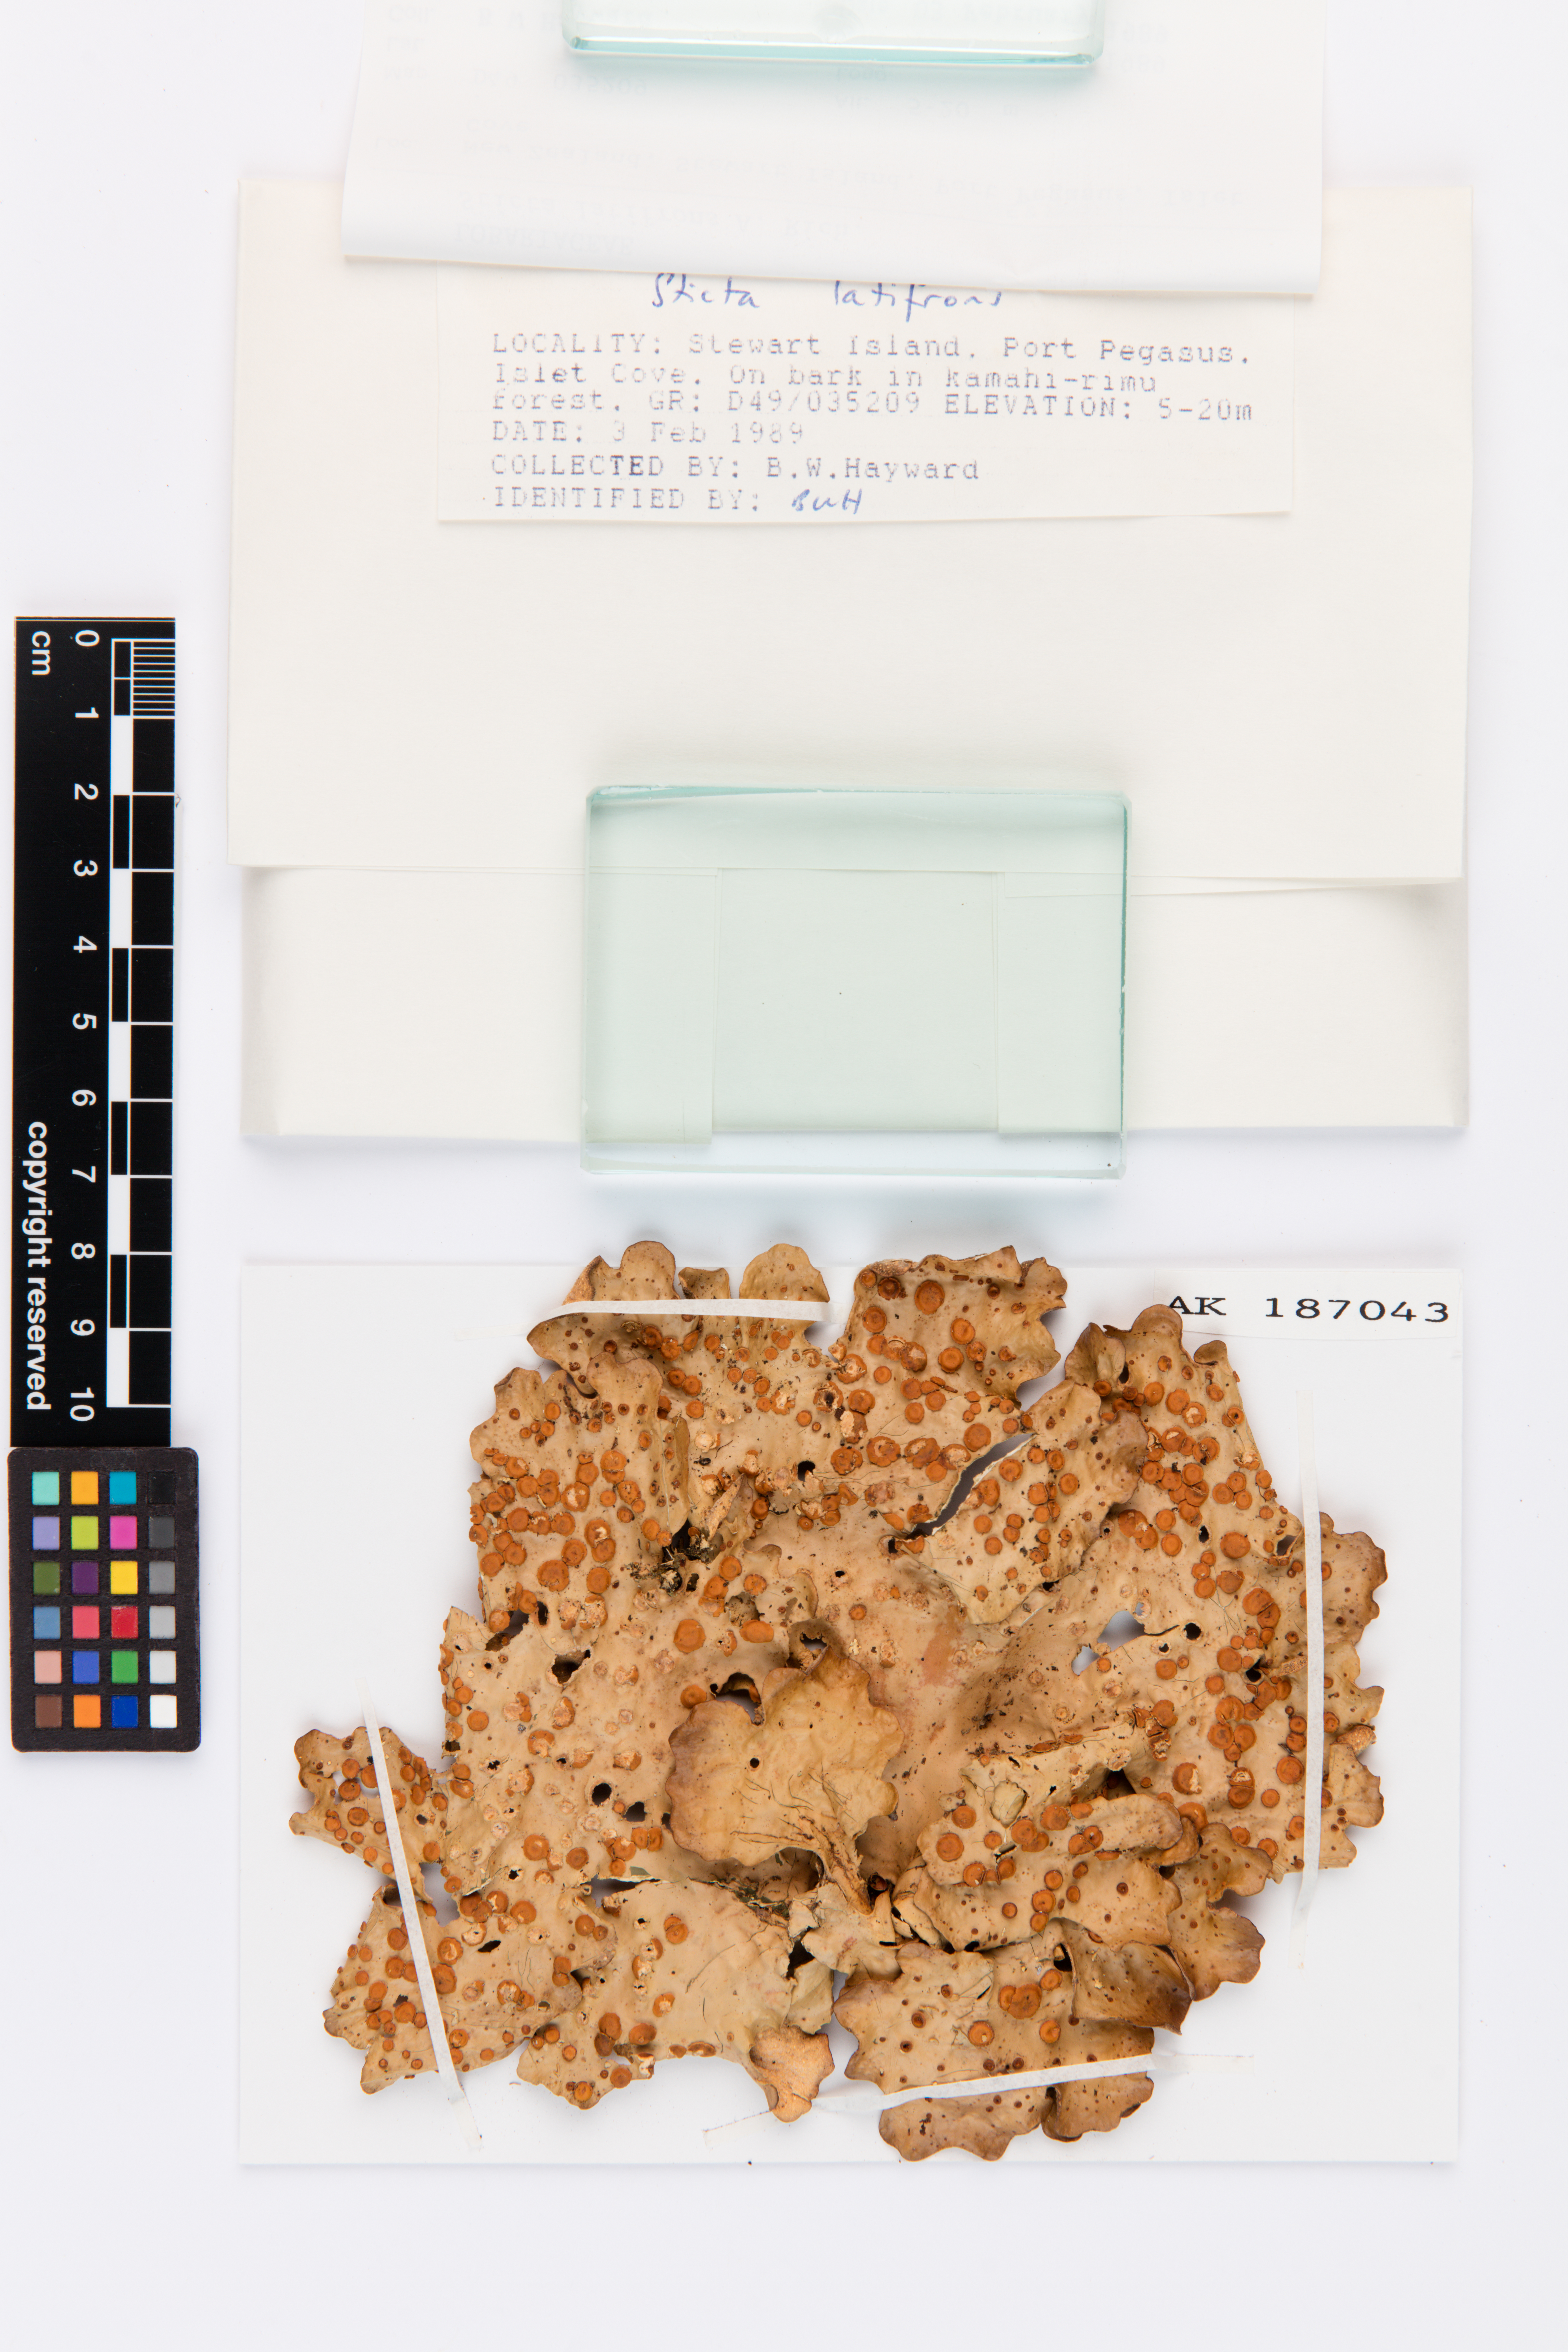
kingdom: Fungi
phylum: Ascomycota
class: Lecanoromycetes
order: Peltigerales
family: Lobariaceae
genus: Sticta
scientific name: Sticta latifrons
